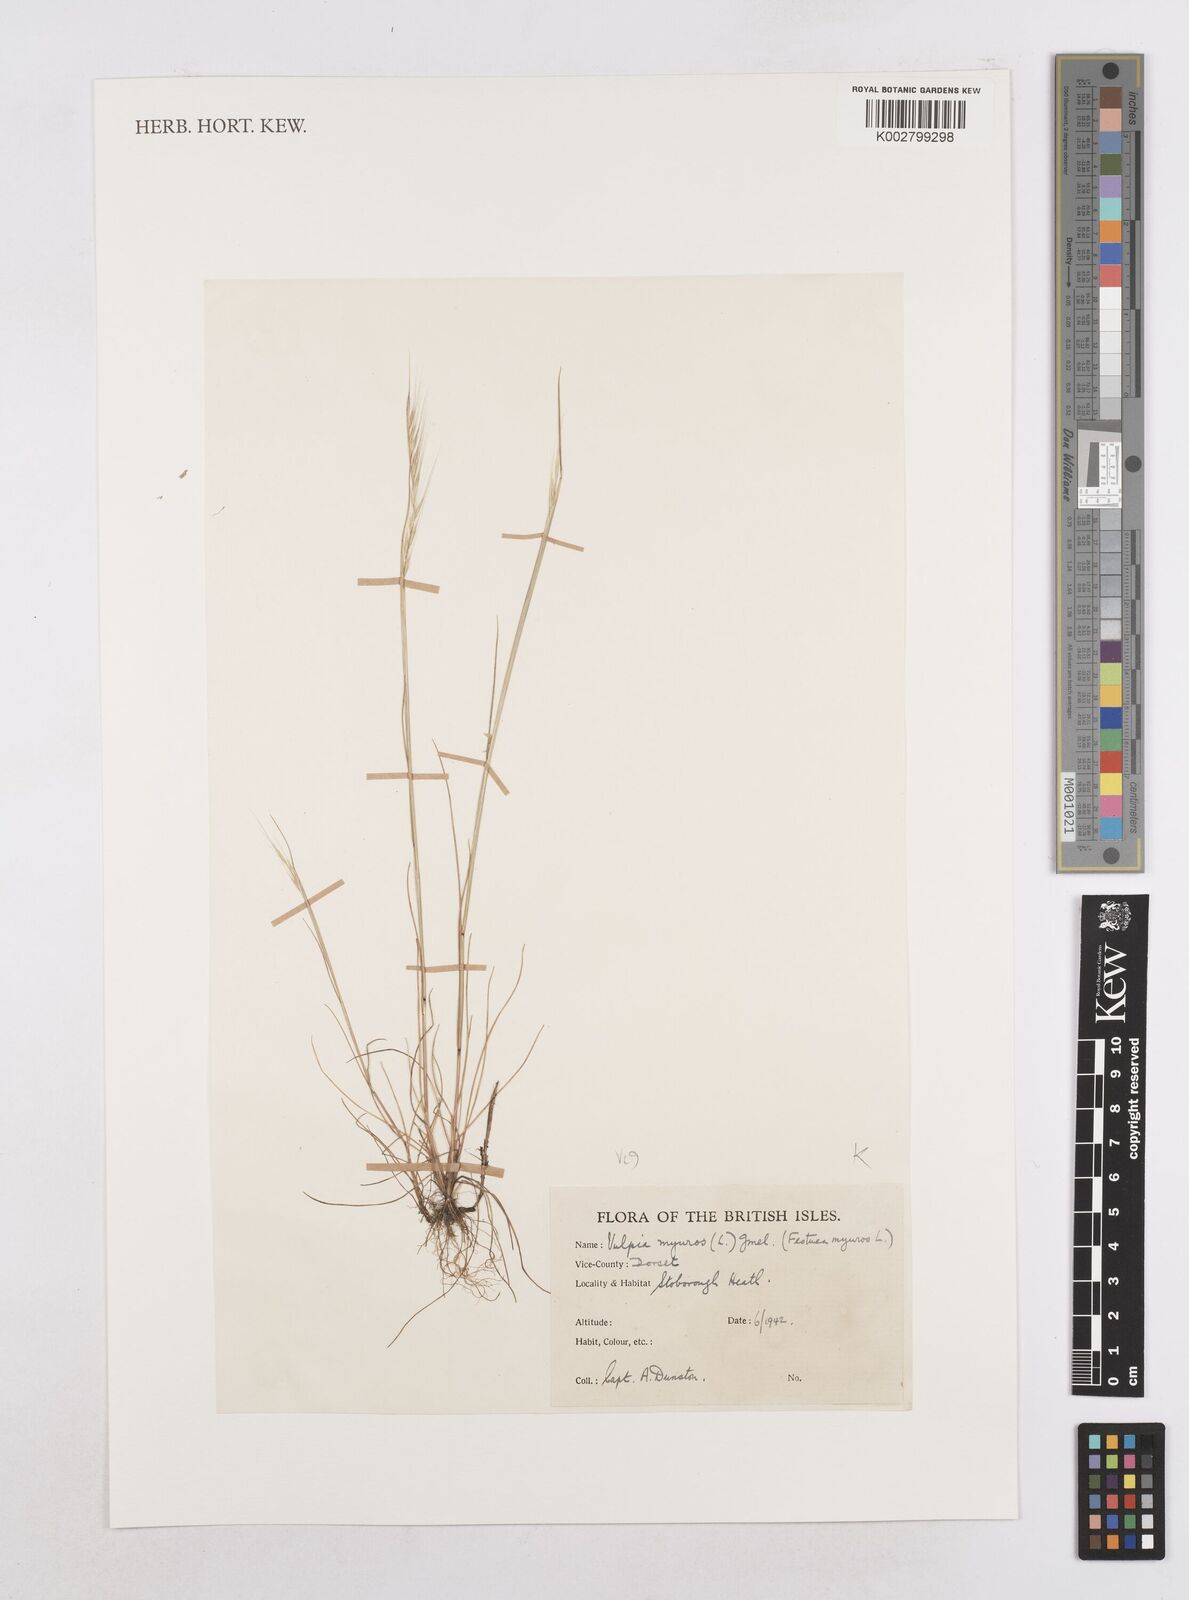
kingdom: Plantae
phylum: Tracheophyta
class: Liliopsida
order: Poales
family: Poaceae
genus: Festuca
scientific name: Festuca myuros
